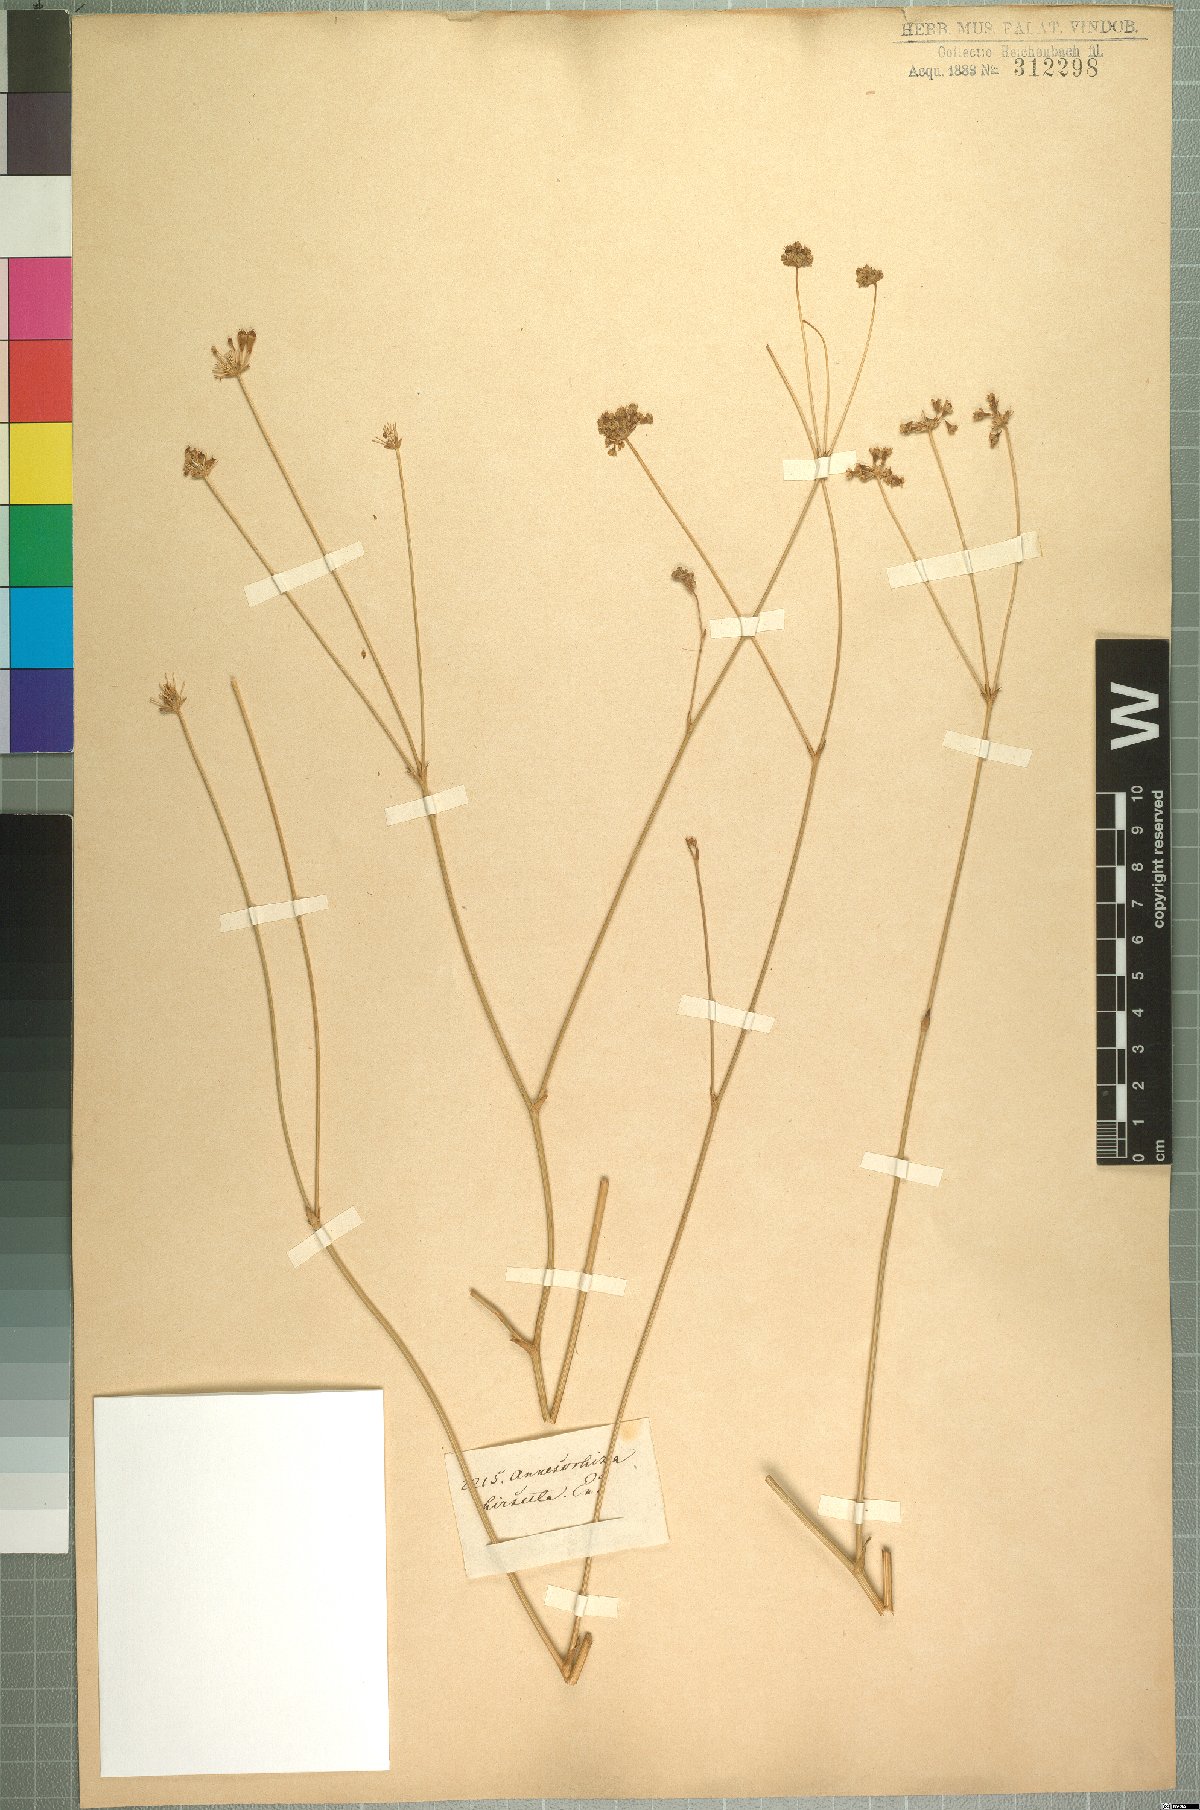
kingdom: Plantae
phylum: Tracheophyta
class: Magnoliopsida
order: Apiales
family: Apiaceae
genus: Annesorhiza
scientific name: Annesorhiza grandiflora
